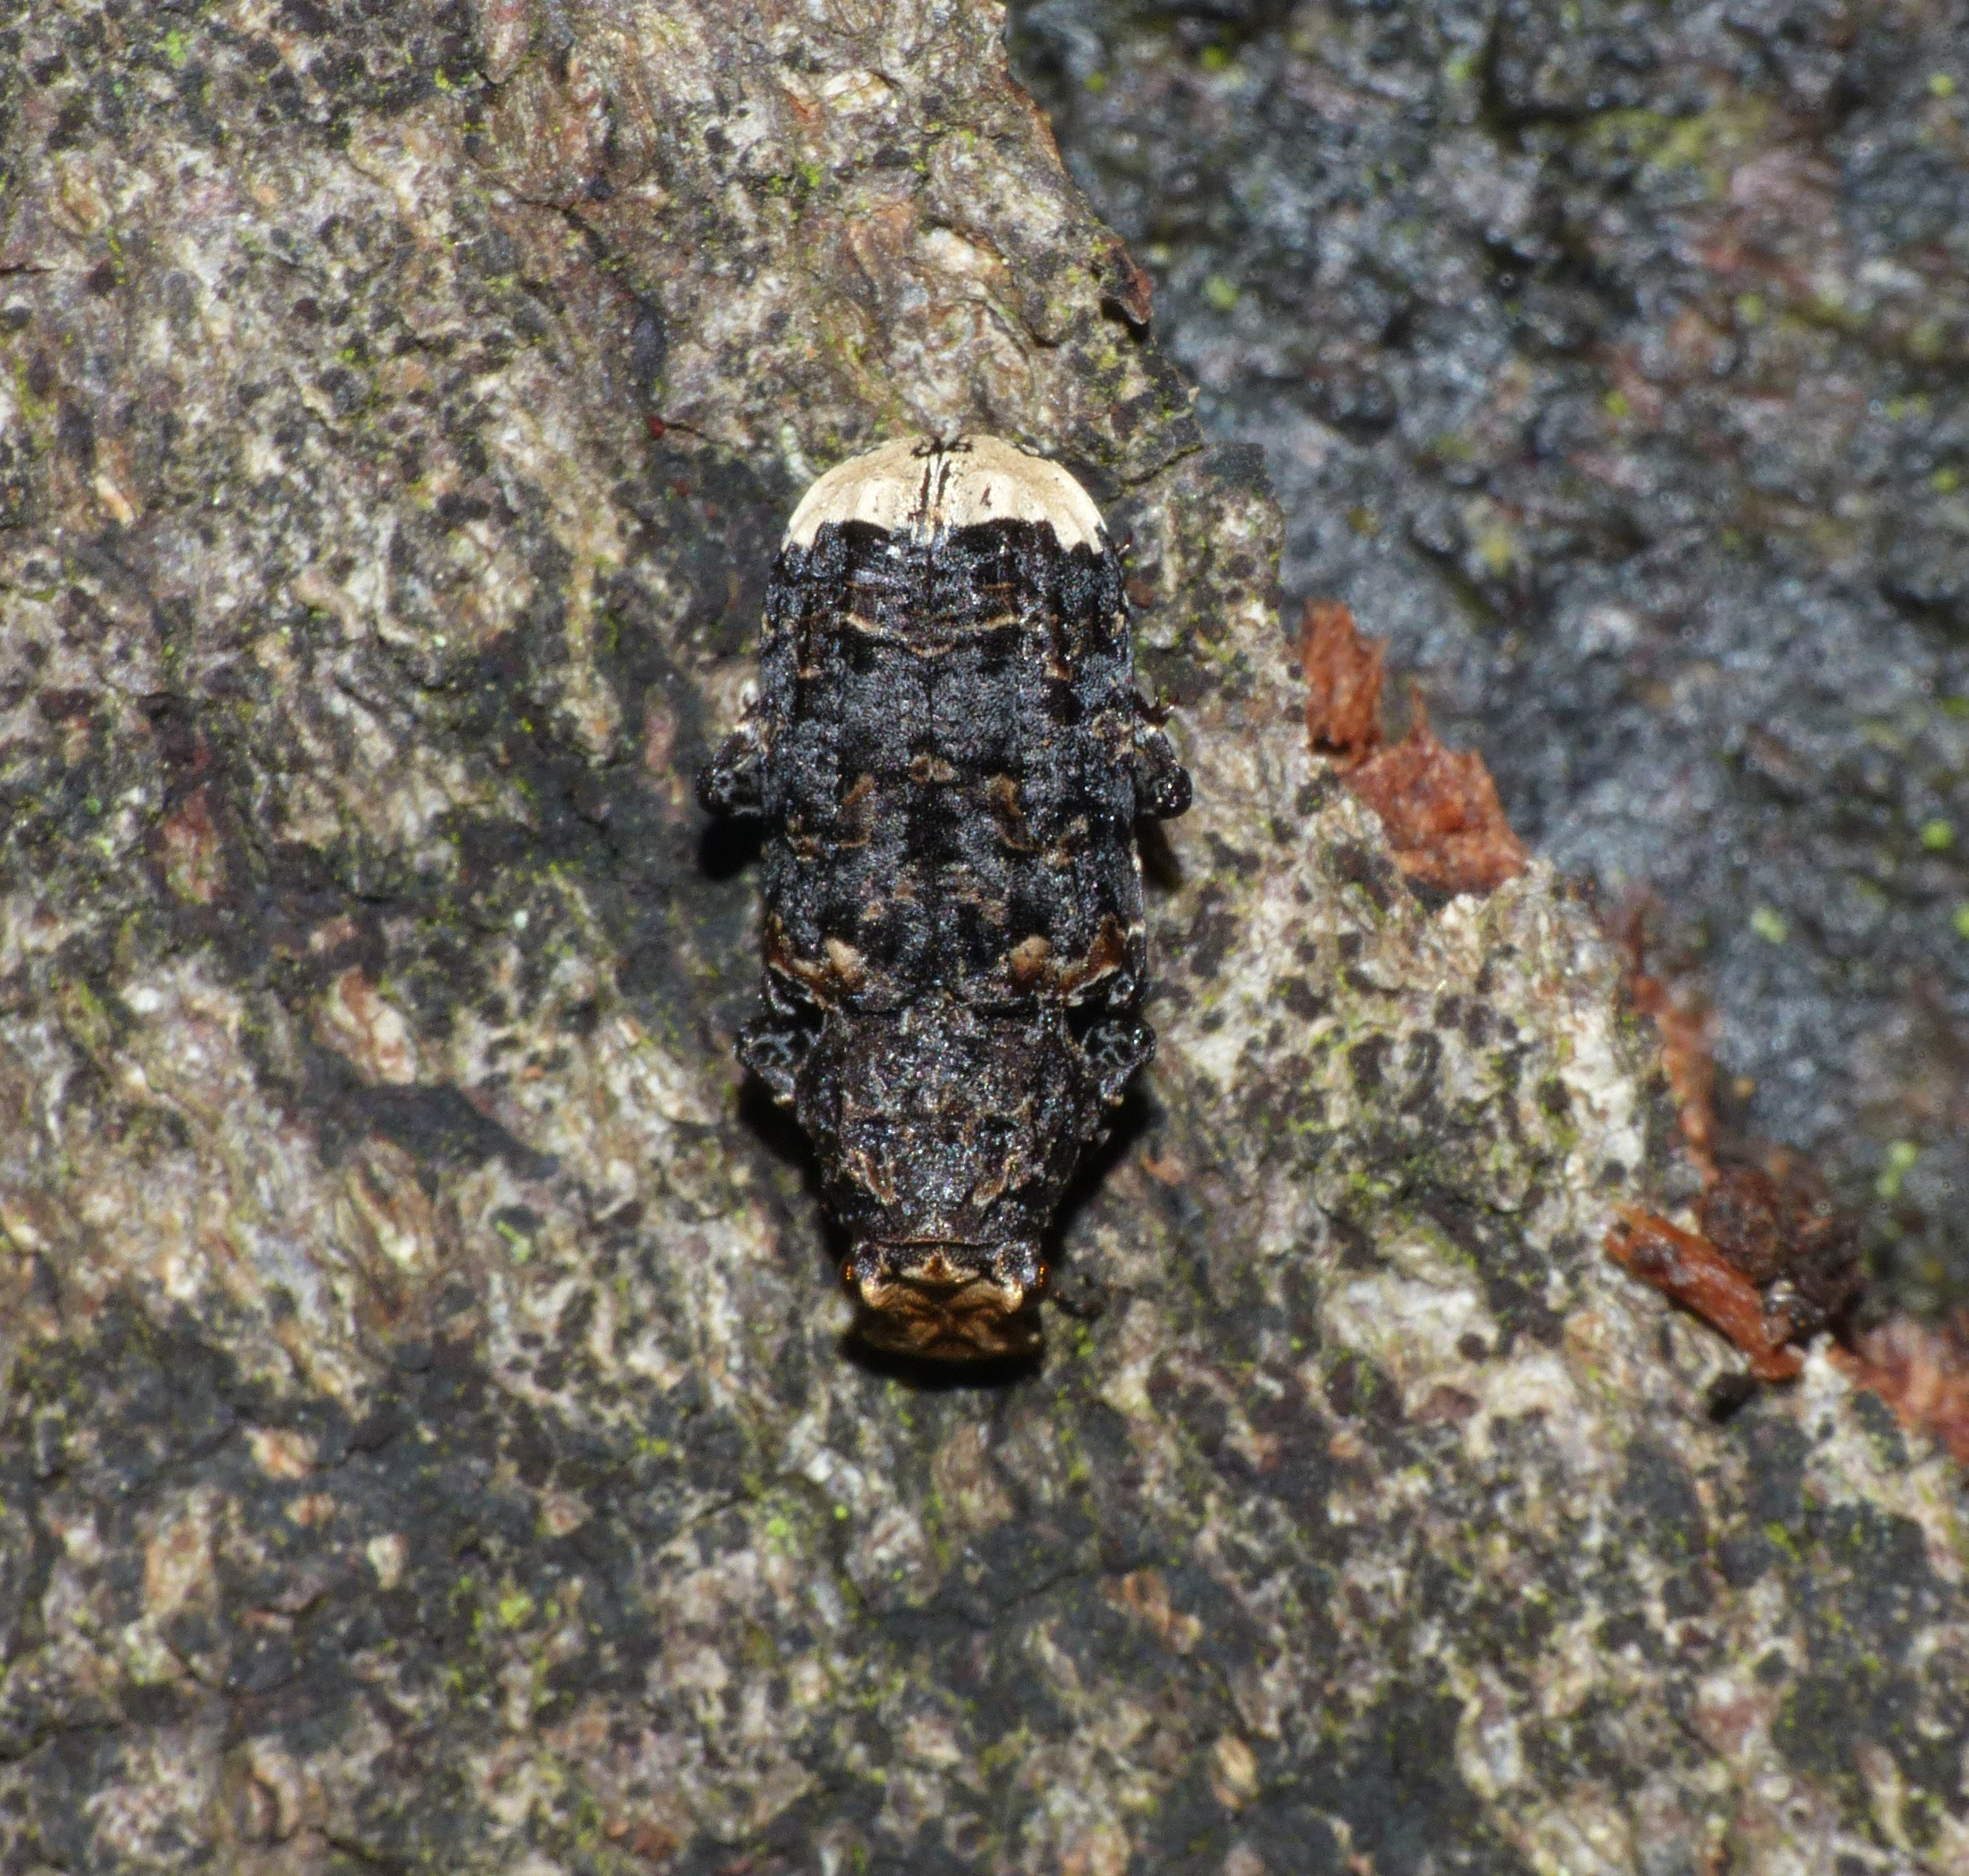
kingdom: Animalia
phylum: Arthropoda
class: Insecta
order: Coleoptera
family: Anthribidae
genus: Platyrhinus
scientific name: Platyrhinus resinosus
